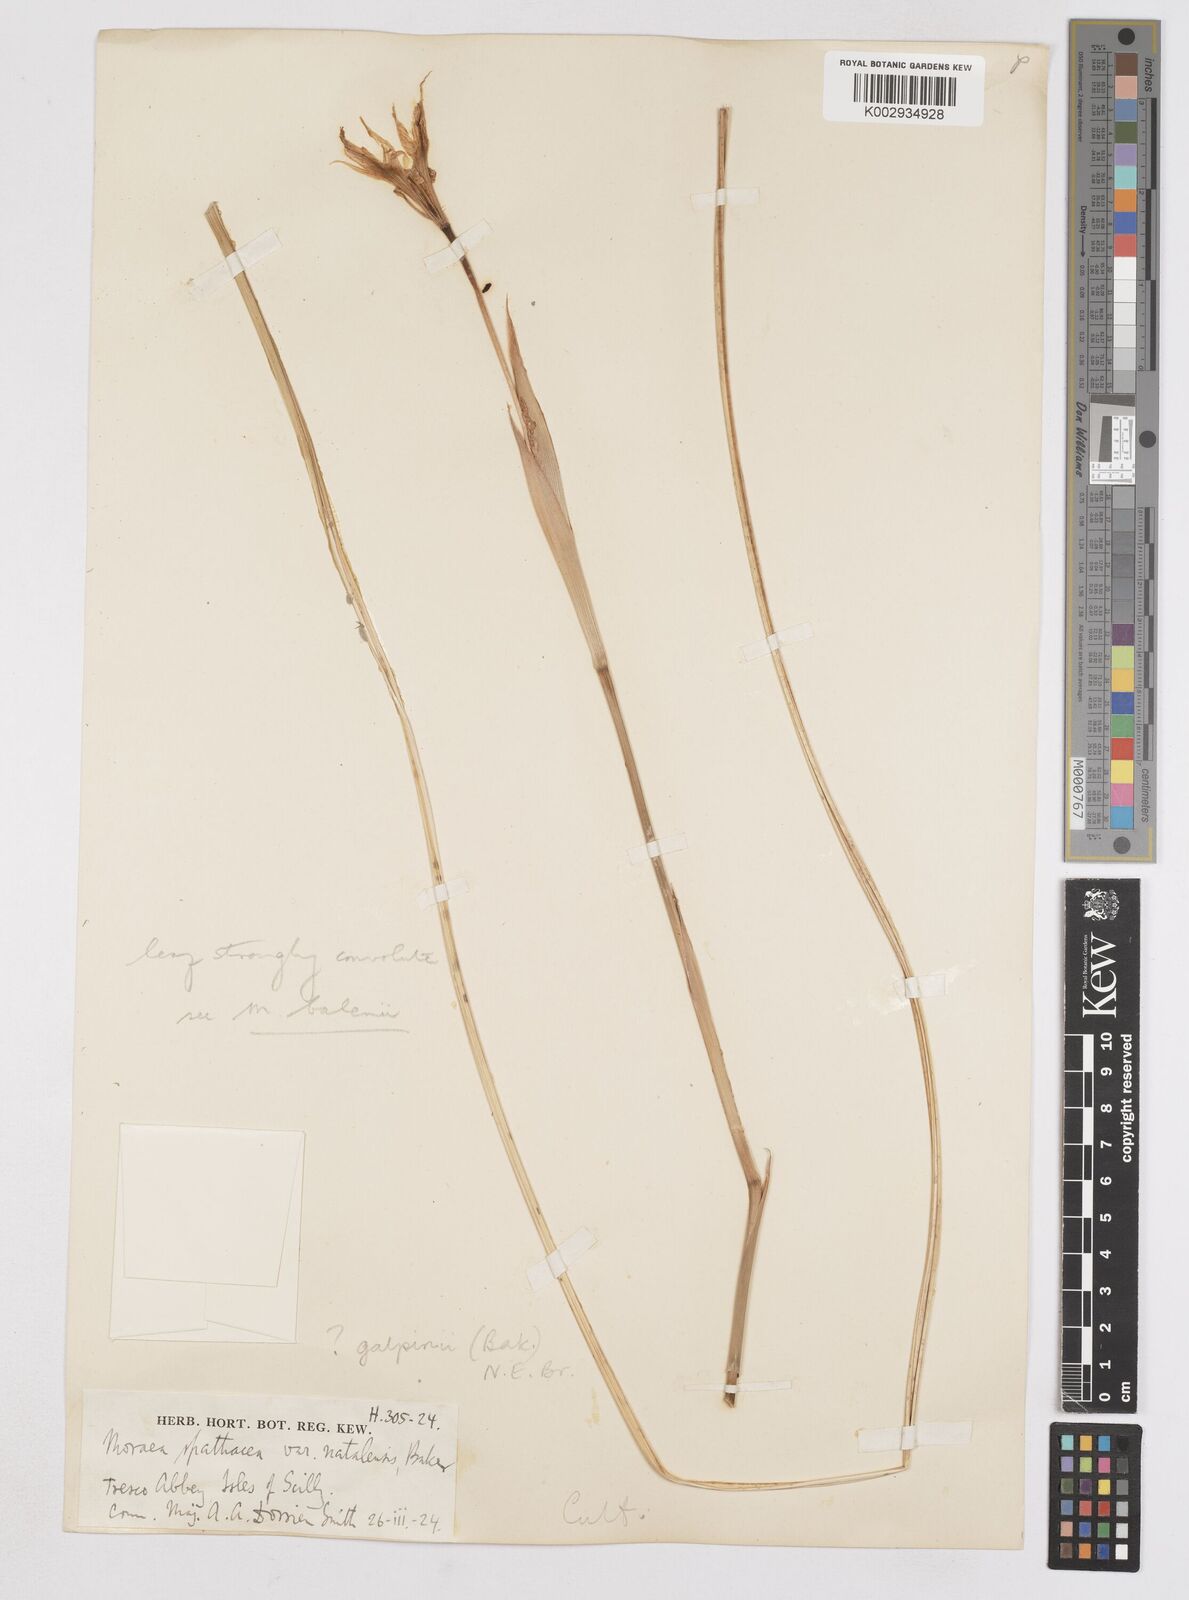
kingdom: Plantae
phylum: Tracheophyta
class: Liliopsida
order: Asparagales
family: Iridaceae
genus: Moraea
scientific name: Moraea galpinii
